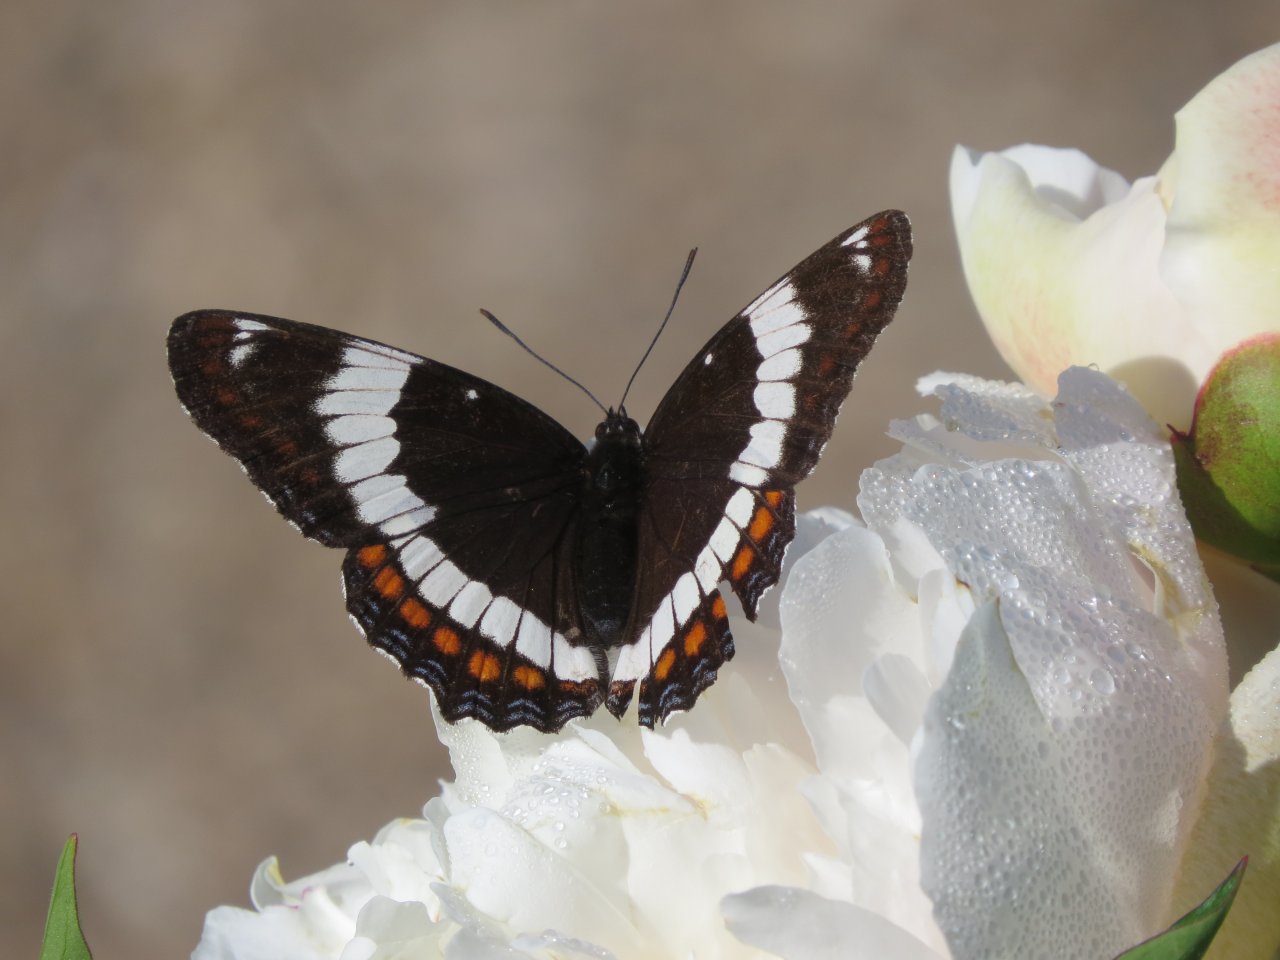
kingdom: Animalia
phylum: Arthropoda
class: Insecta
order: Lepidoptera
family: Nymphalidae
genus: Limenitis
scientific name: Limenitis arthemis
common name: Red-spotted Admiral
